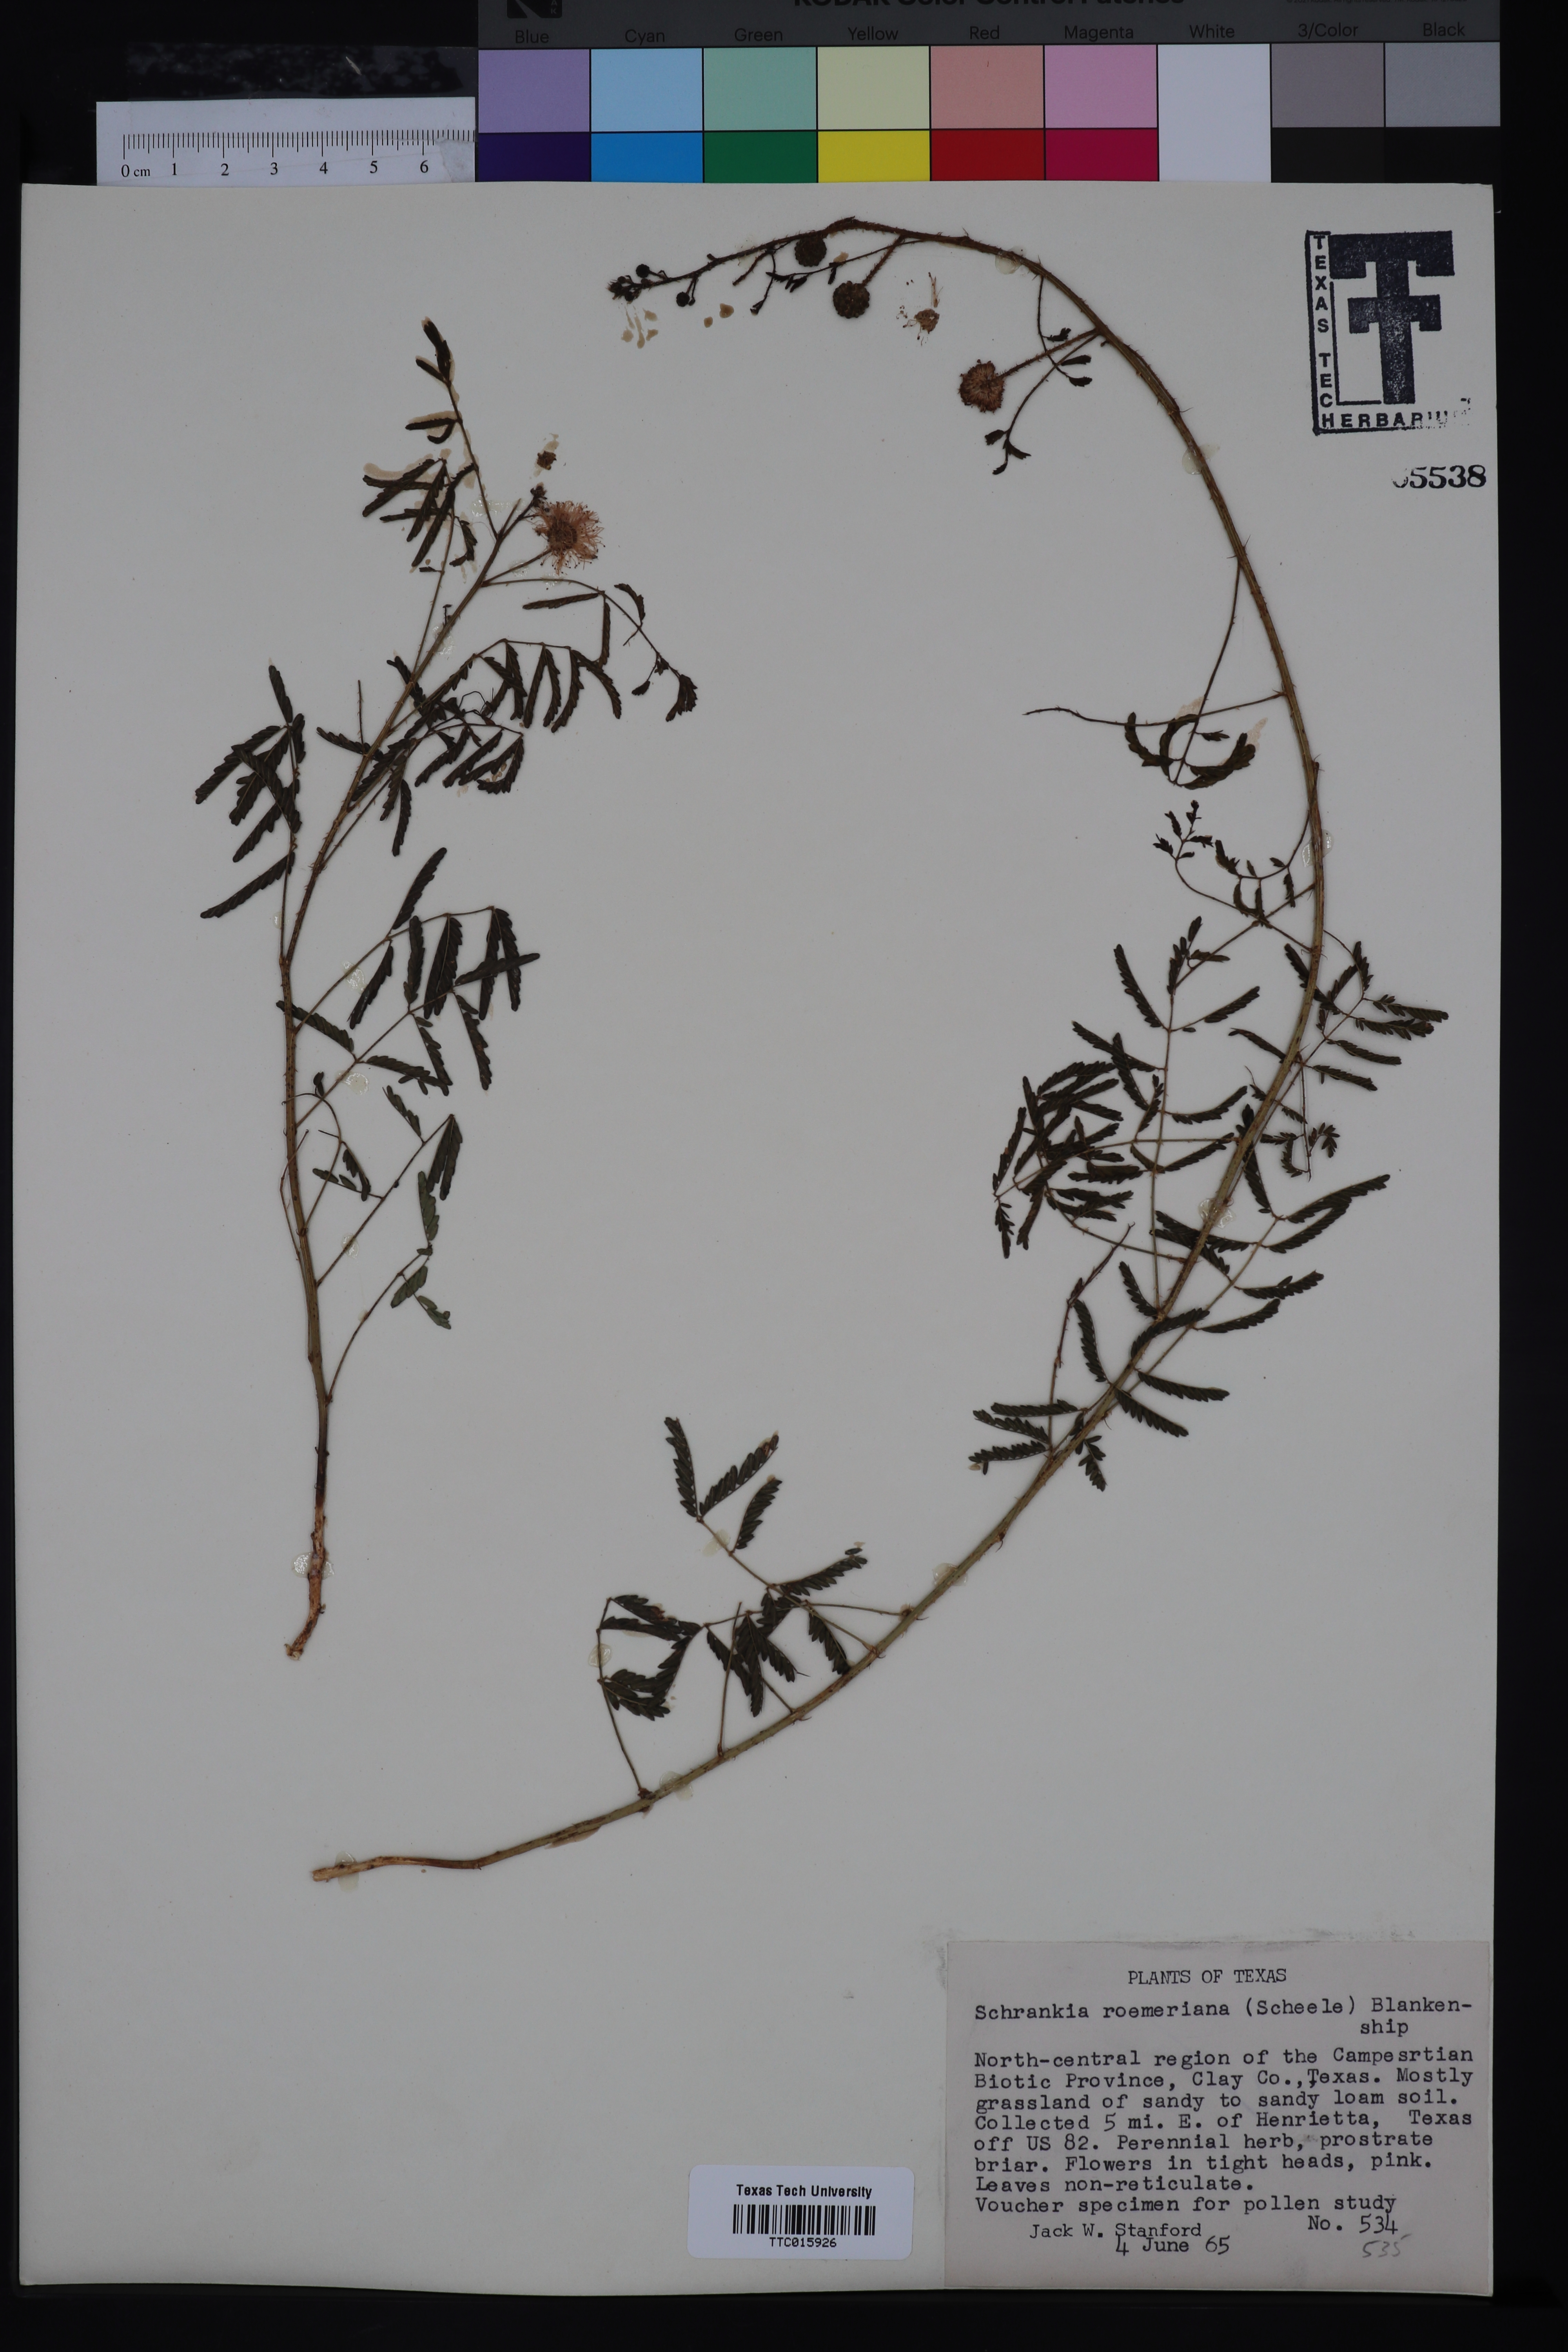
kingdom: Plantae
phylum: Tracheophyta
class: Magnoliopsida
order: Fabales
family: Fabaceae
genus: Mimosa
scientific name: Mimosa quadrivalvis
